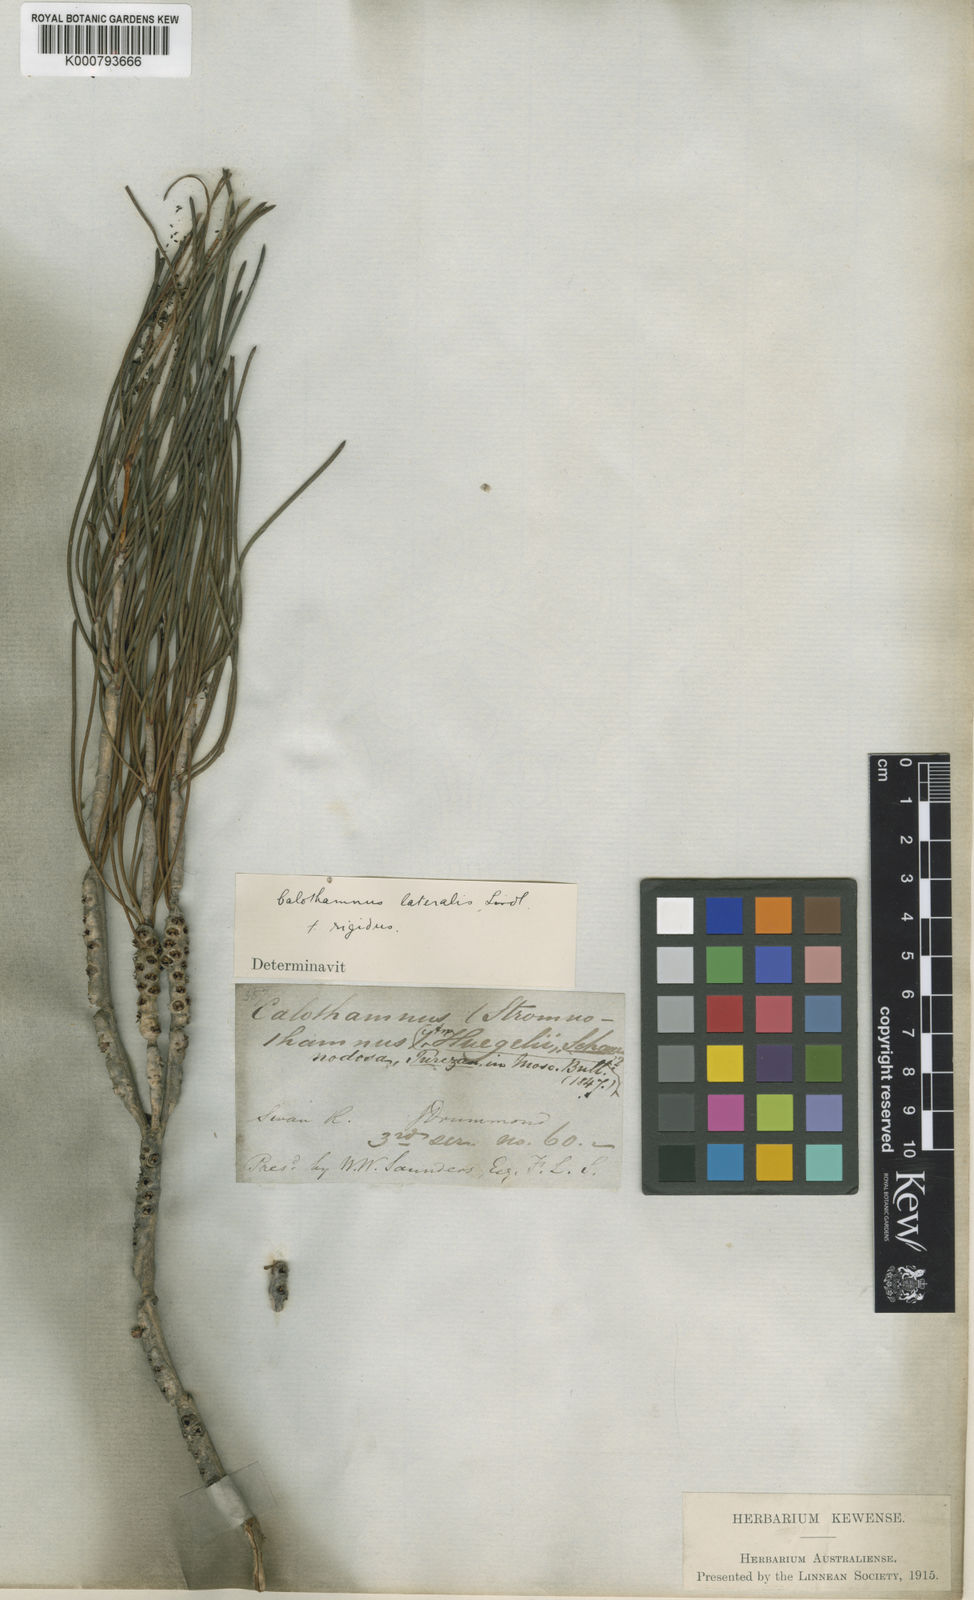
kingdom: Plantae
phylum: Tracheophyta
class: Magnoliopsida
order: Myrtales
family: Myrtaceae
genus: Melaleuca
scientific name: Melaleuca lateralis
